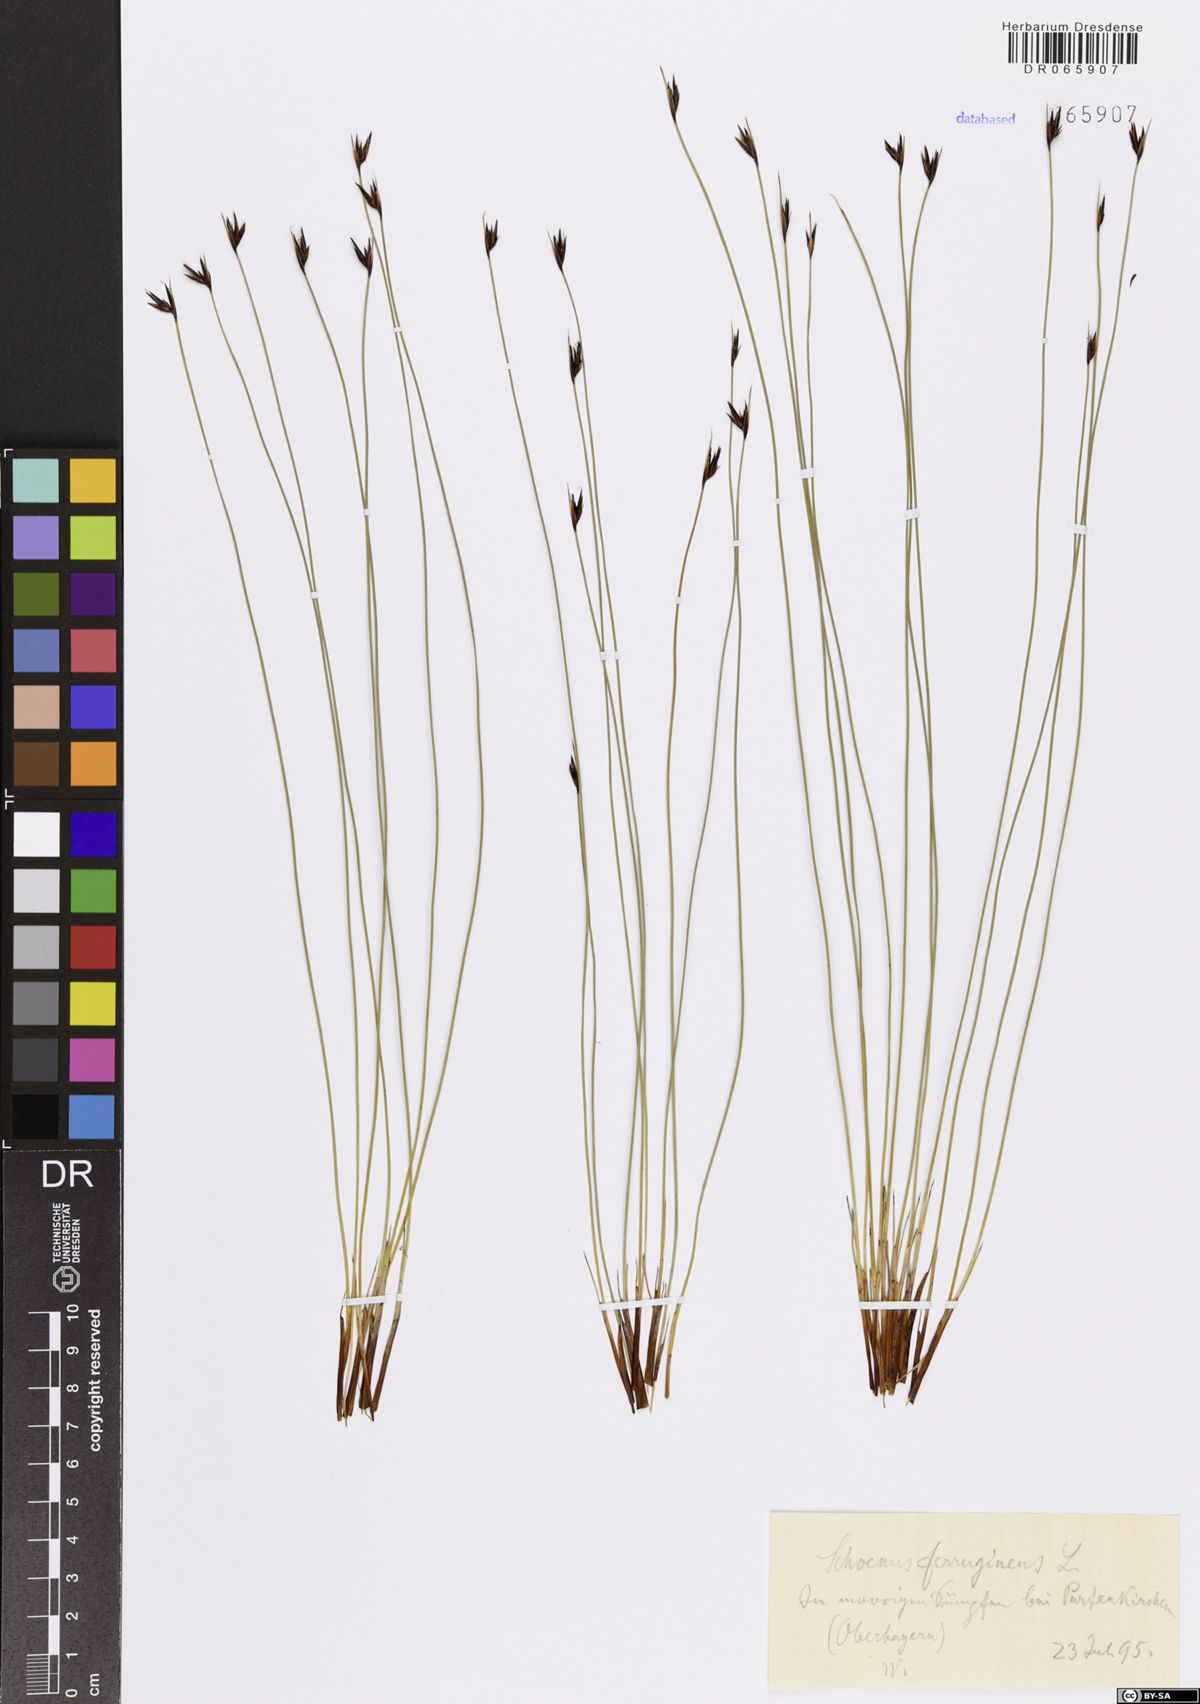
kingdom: Plantae
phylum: Tracheophyta
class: Liliopsida
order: Poales
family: Cyperaceae
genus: Schoenus
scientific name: Schoenus ferrugineus
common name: Brown bog-rush
